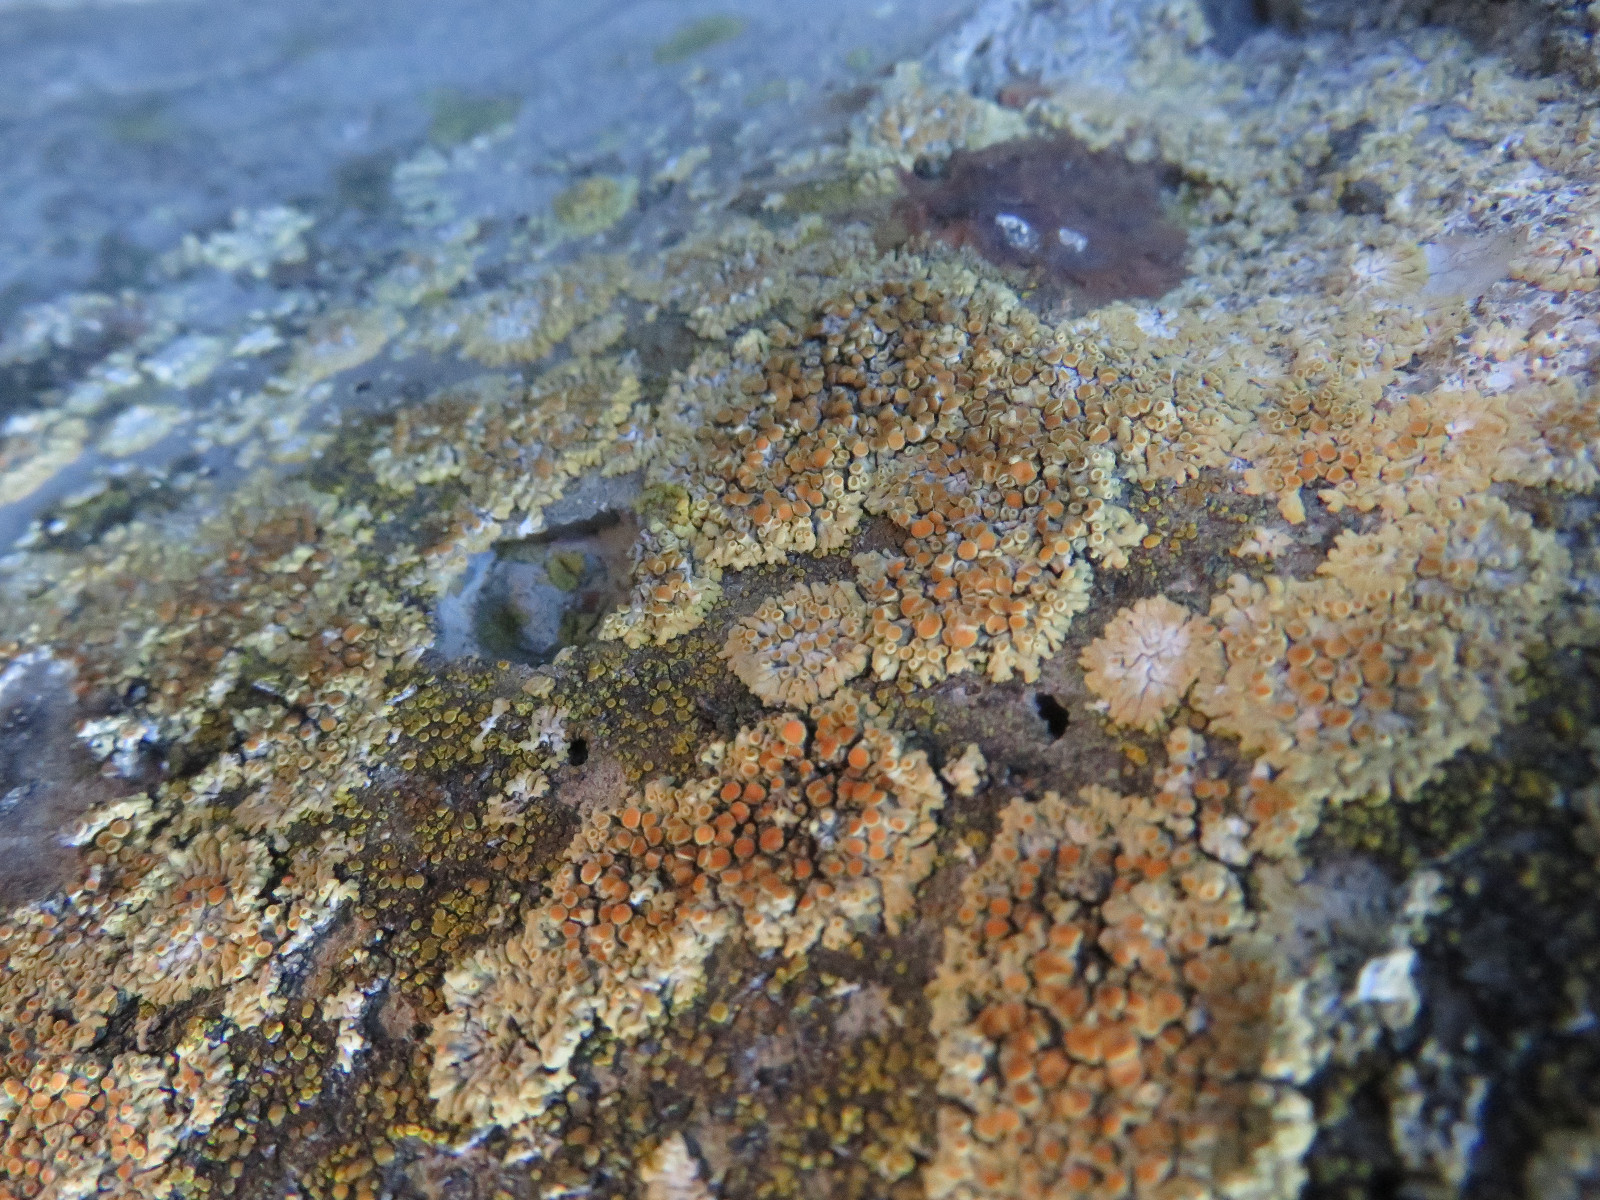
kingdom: Fungi
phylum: Ascomycota
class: Lecanoromycetes
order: Teloschistales
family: Teloschistaceae
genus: Calogaya
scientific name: Calogaya pusilla
